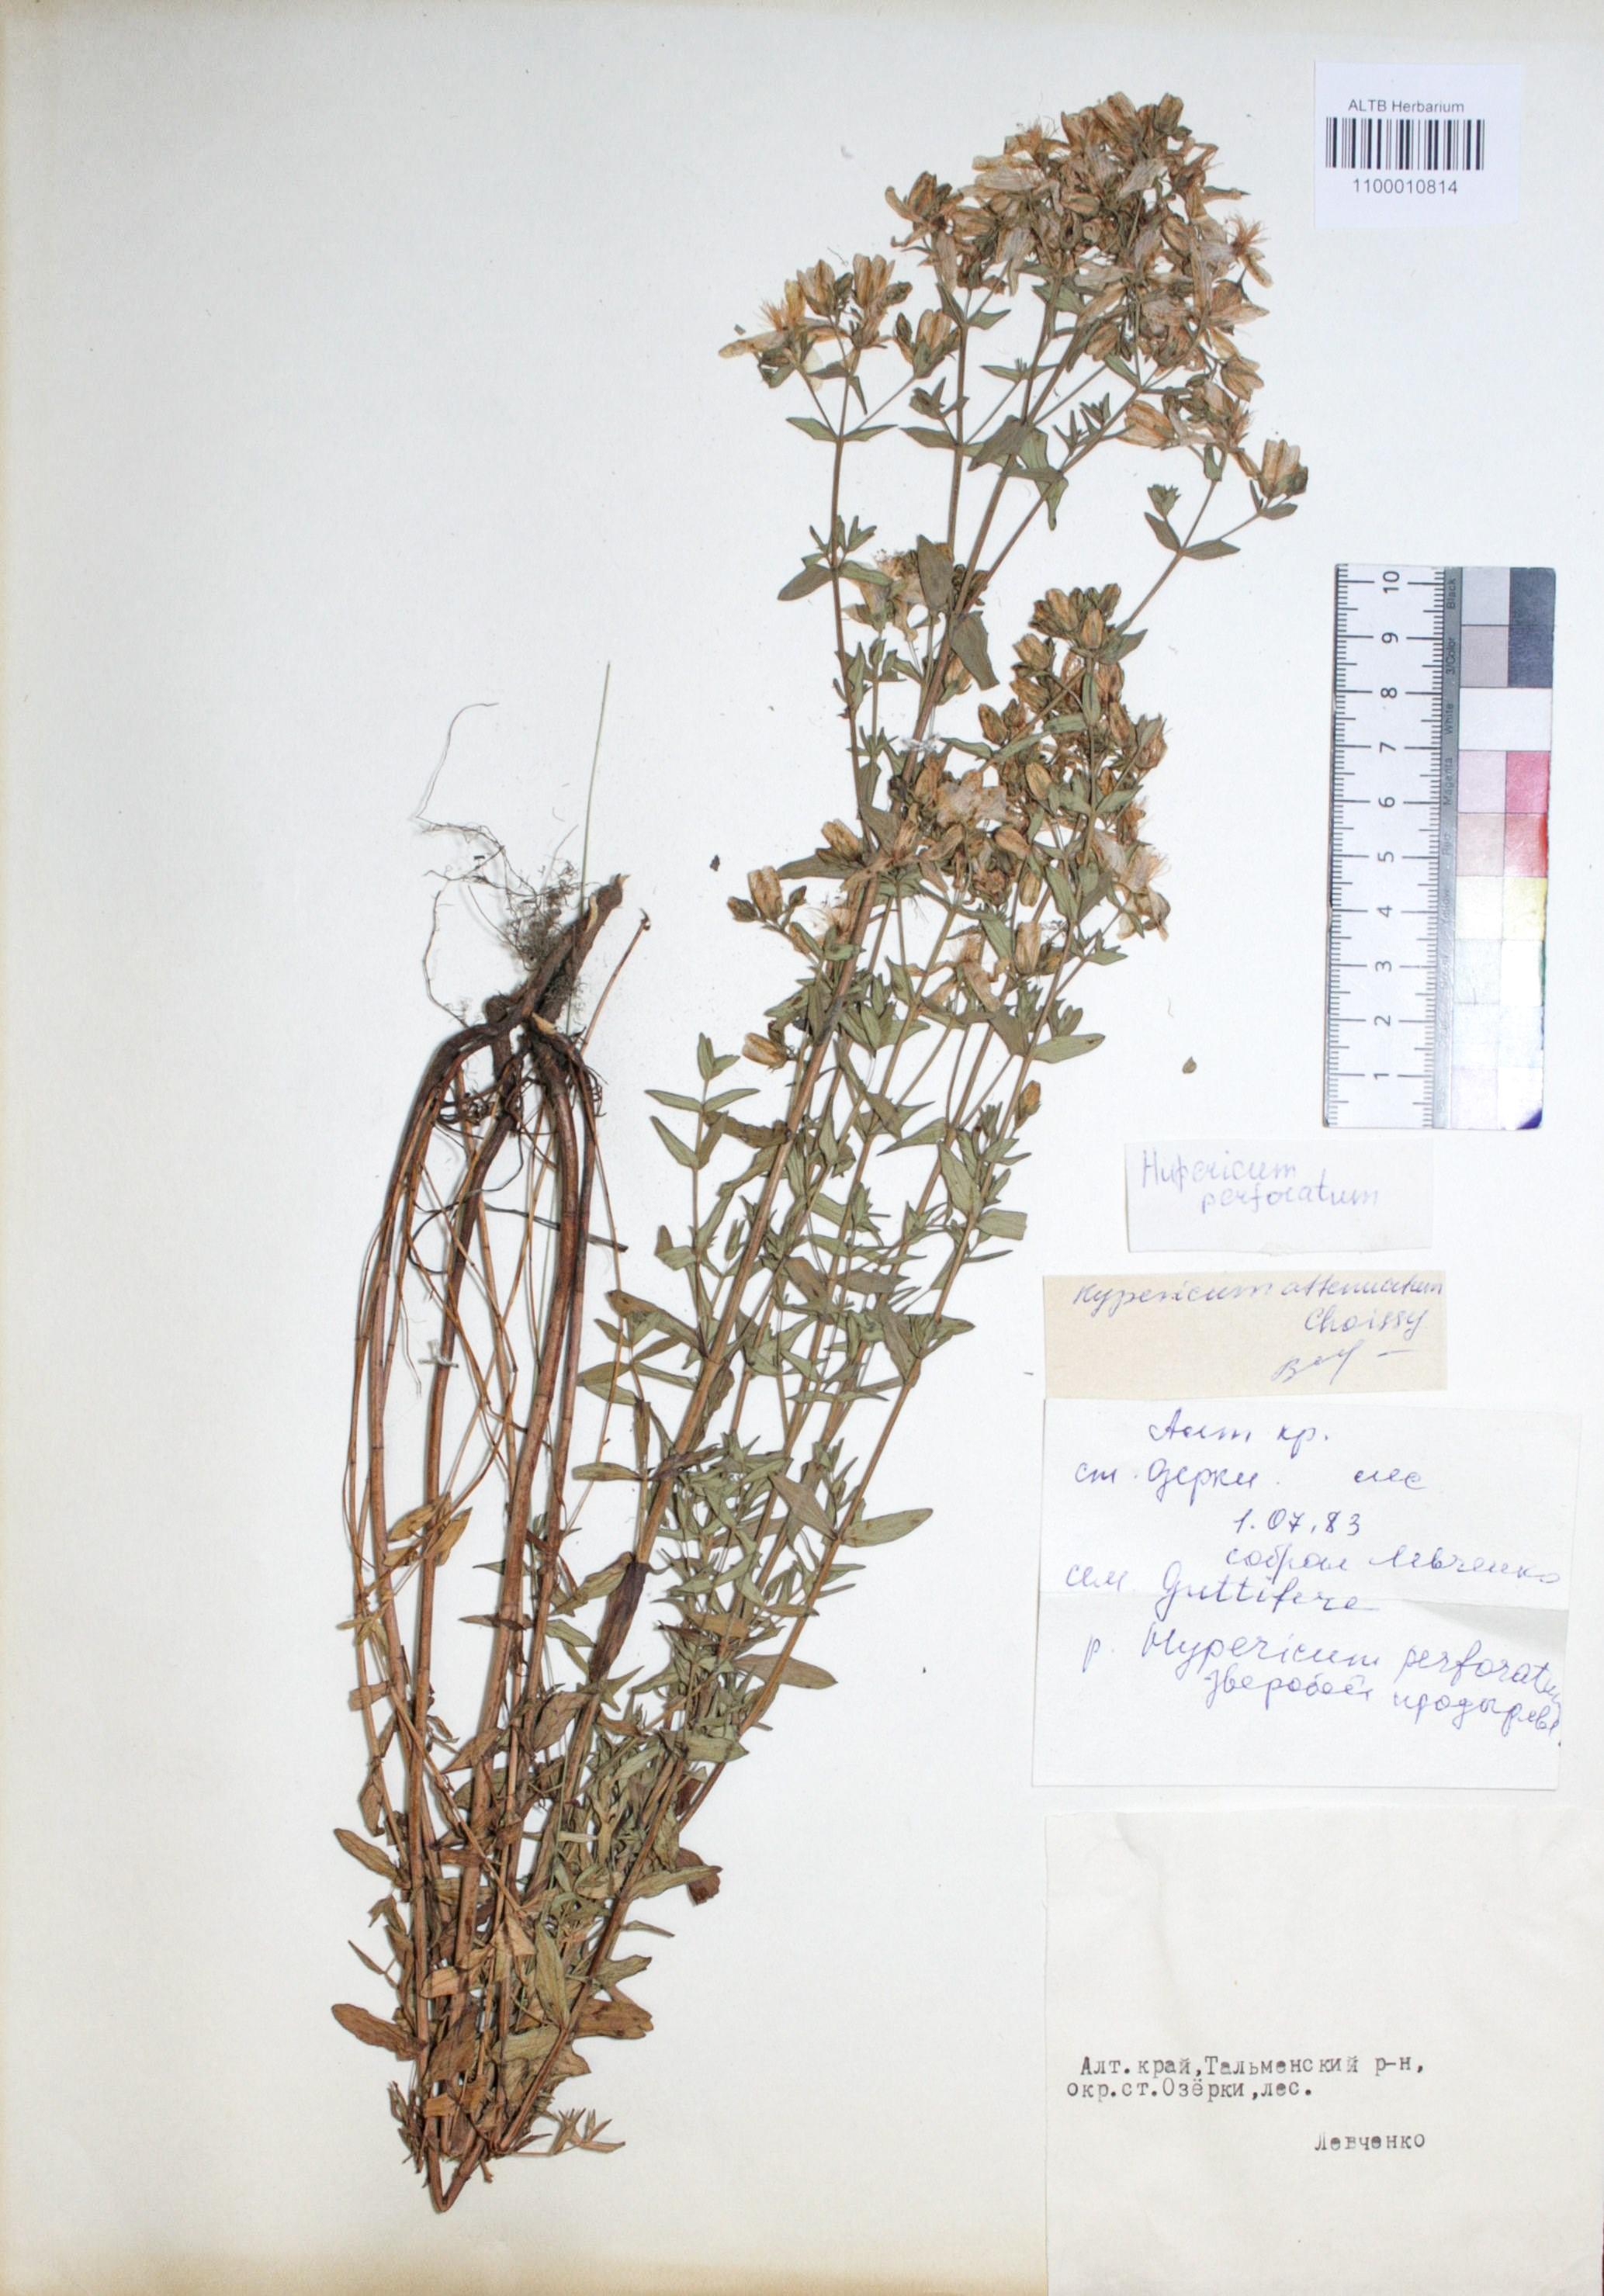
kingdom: Plantae
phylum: Tracheophyta
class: Magnoliopsida
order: Malpighiales
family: Hypericaceae
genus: Hypericum
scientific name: Hypericum perforatum
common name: Common st. johnswort
